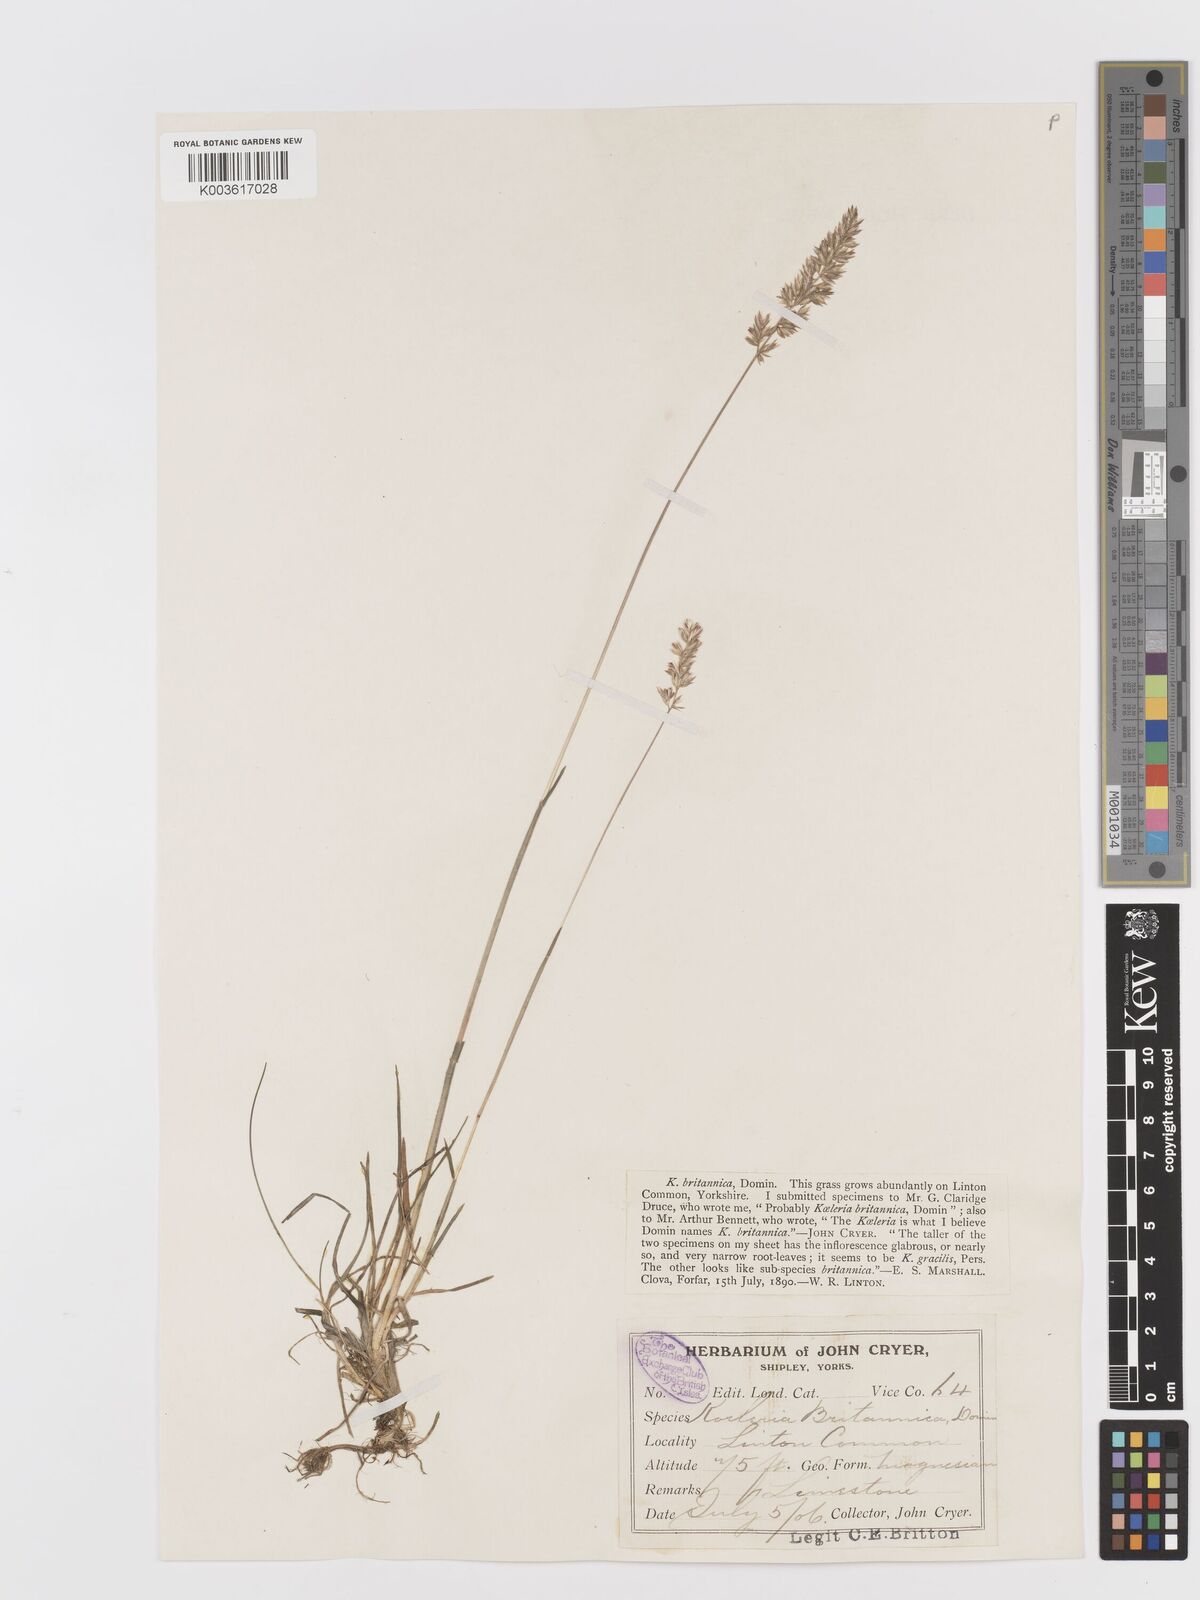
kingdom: Plantae
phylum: Tracheophyta
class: Liliopsida
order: Poales
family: Poaceae
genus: Koeleria
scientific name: Koeleria macrantha
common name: Crested hair-grass
